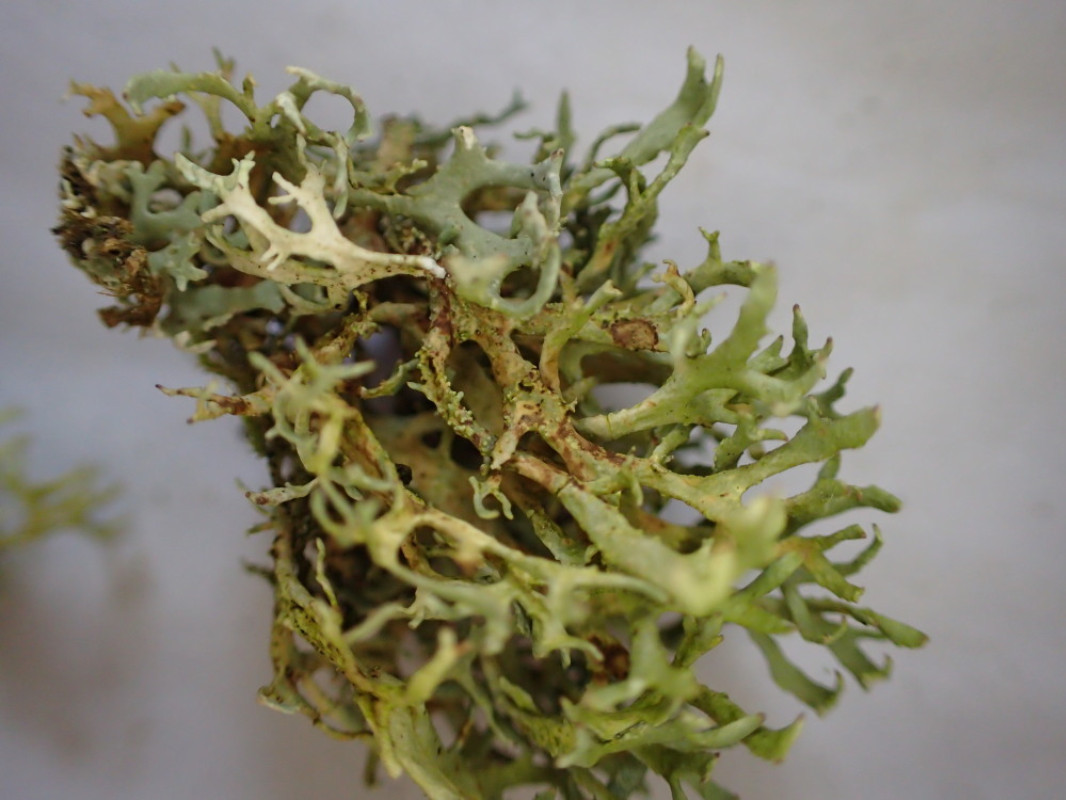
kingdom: Fungi
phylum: Ascomycota
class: Lecanoromycetes
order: Lecanorales
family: Parmeliaceae
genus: Evernia
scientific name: Evernia prunastri
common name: almindelig slåenlav
